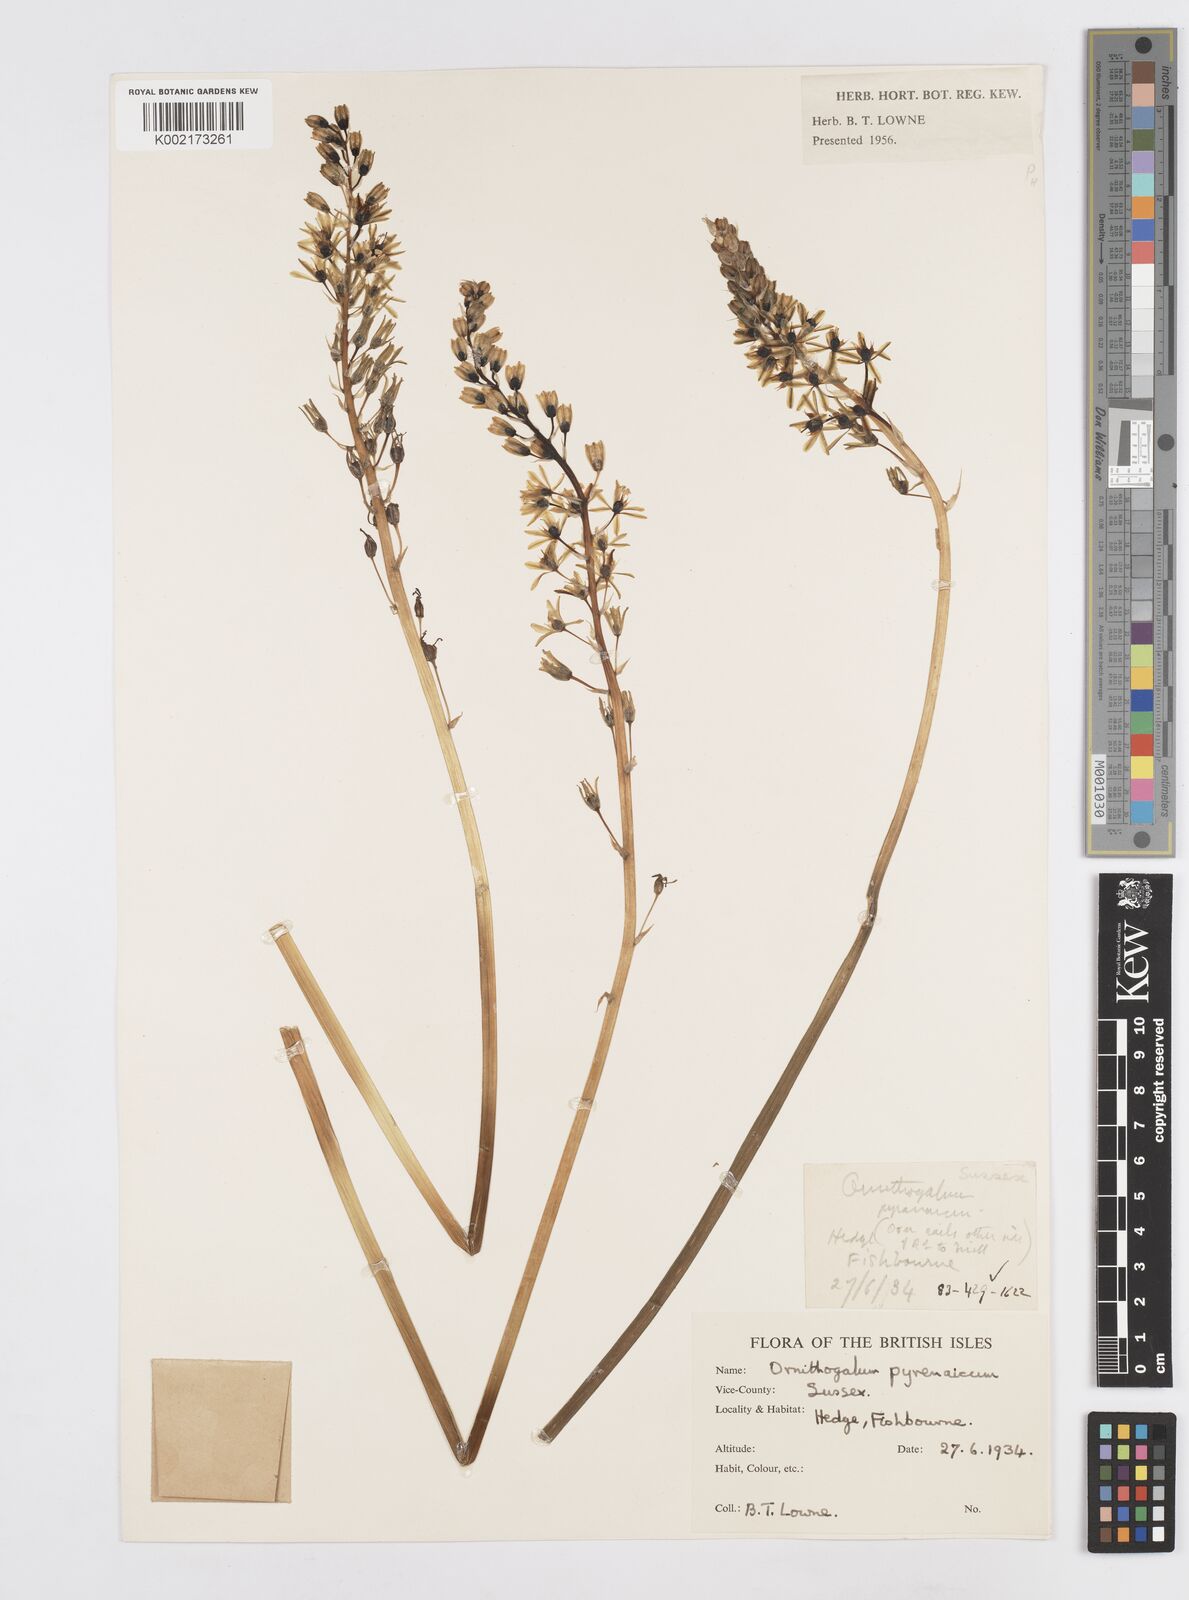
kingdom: Plantae
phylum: Tracheophyta
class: Liliopsida
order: Asparagales
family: Asparagaceae
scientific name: Asparagaceae
